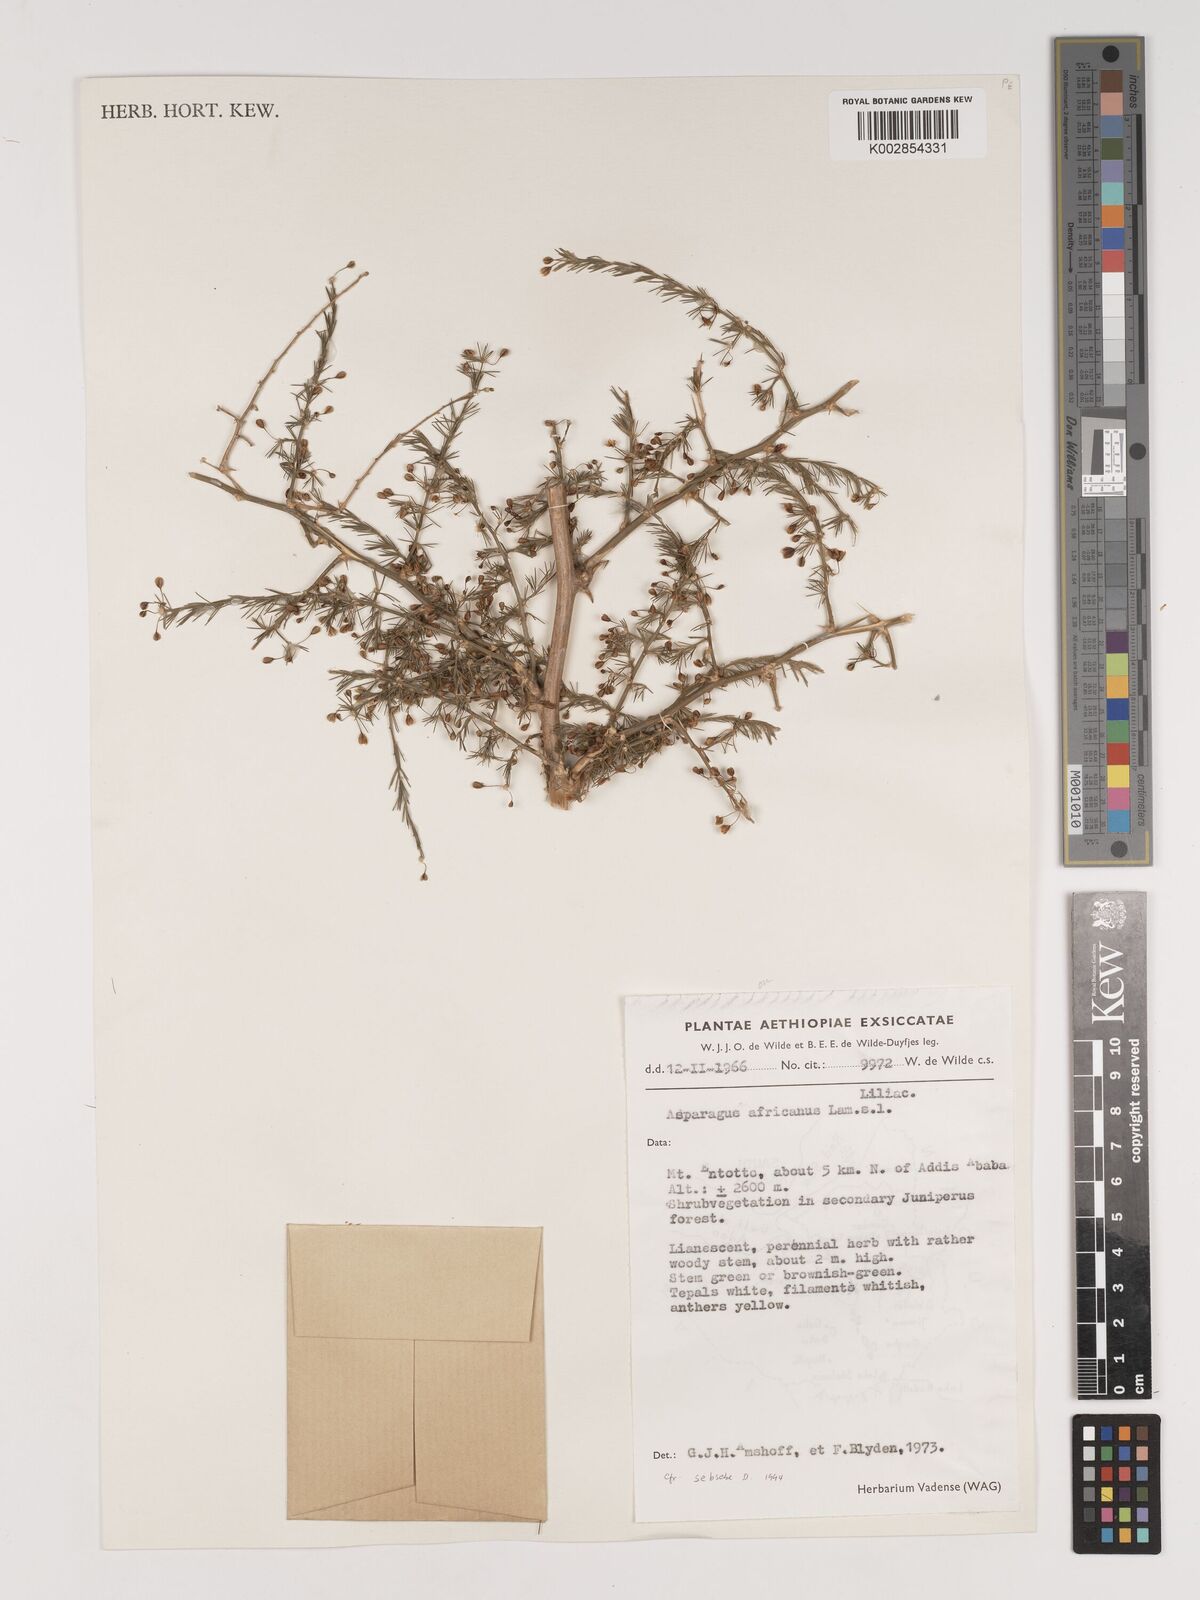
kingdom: Plantae
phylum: Tracheophyta
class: Liliopsida
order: Asparagales
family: Asparagaceae
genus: Asparagus
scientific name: Asparagus africanus
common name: Asparagus-fern
